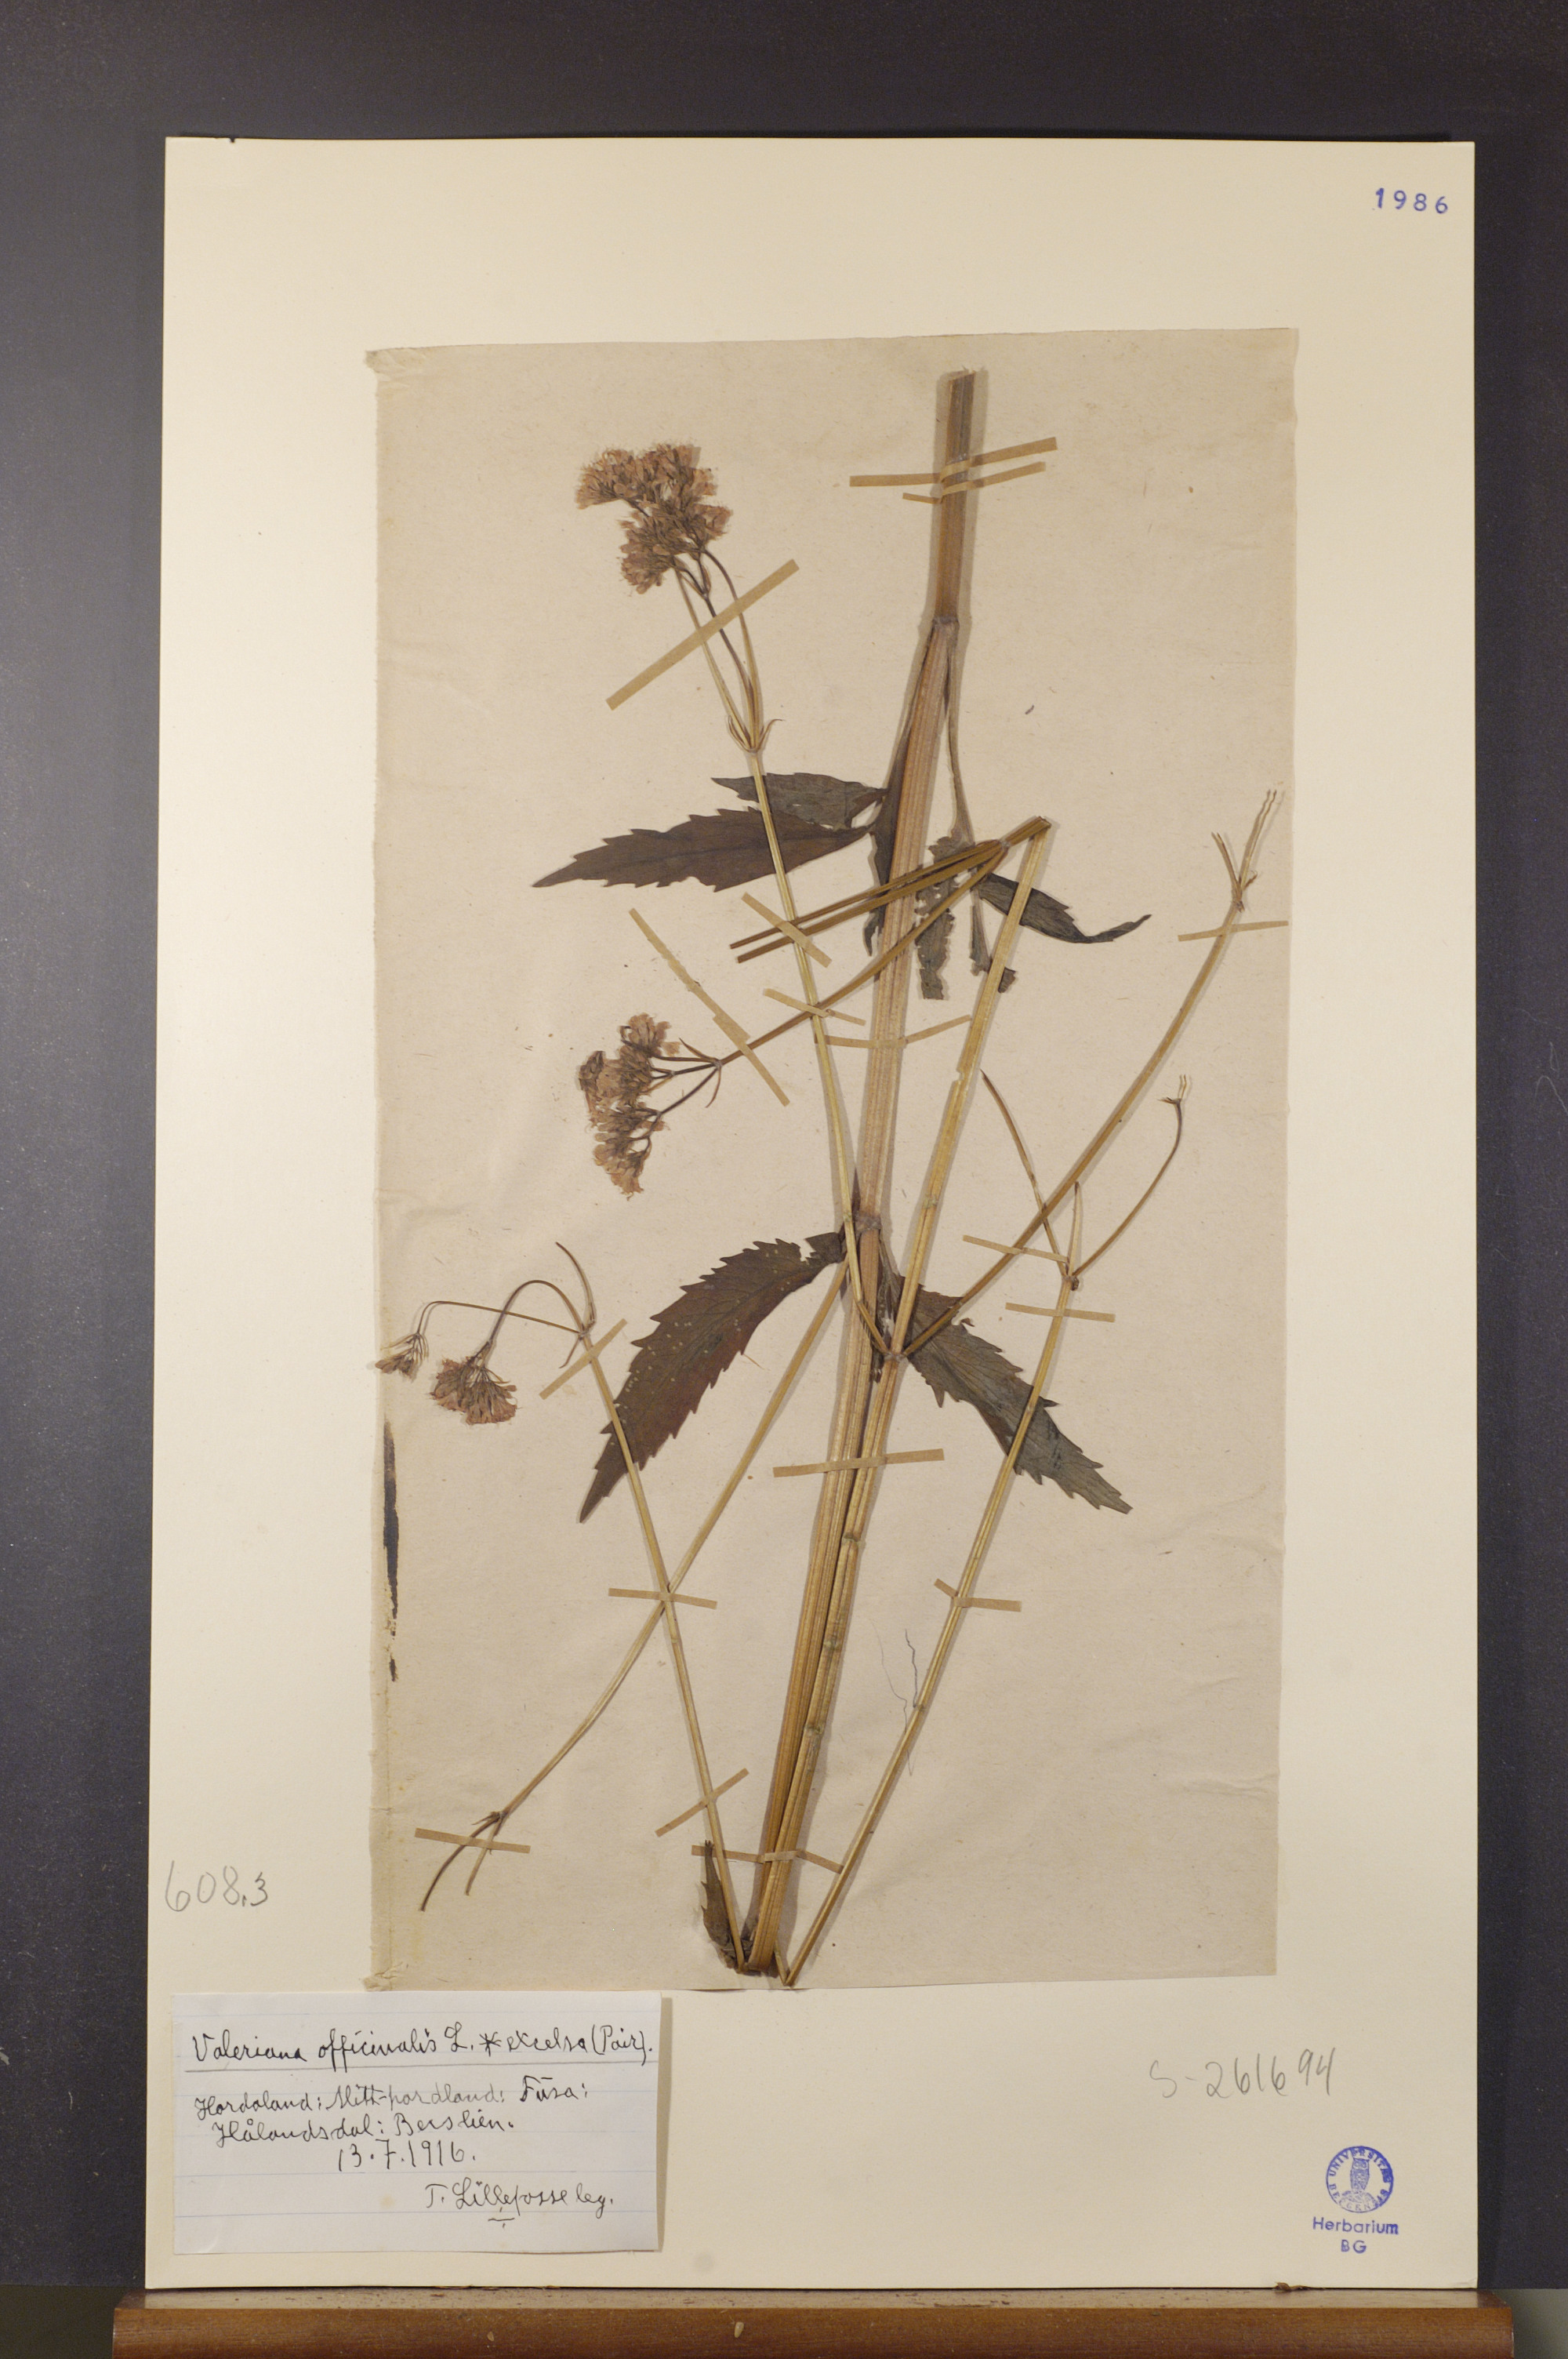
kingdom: Plantae
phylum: Tracheophyta
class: Magnoliopsida
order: Dipsacales
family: Caprifoliaceae
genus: Valeriana
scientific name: Valeriana sambucifolia
